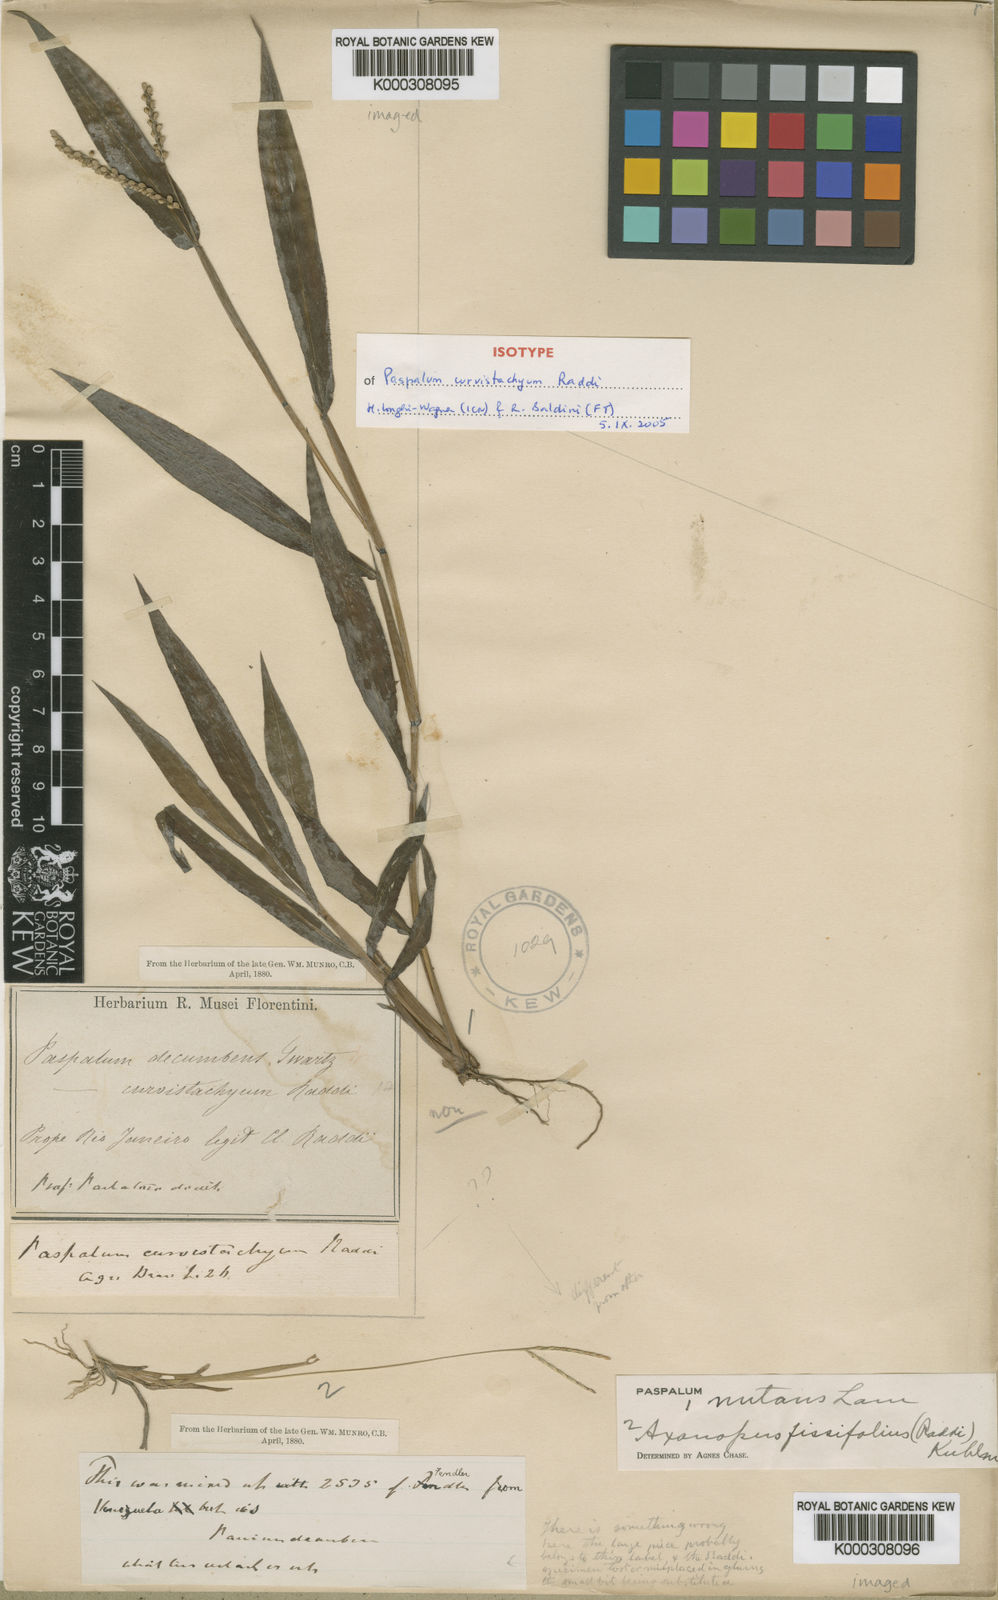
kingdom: Plantae
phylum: Tracheophyta
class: Liliopsida
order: Poales
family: Poaceae
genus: Paspalum
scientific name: Paspalum acuminatum
